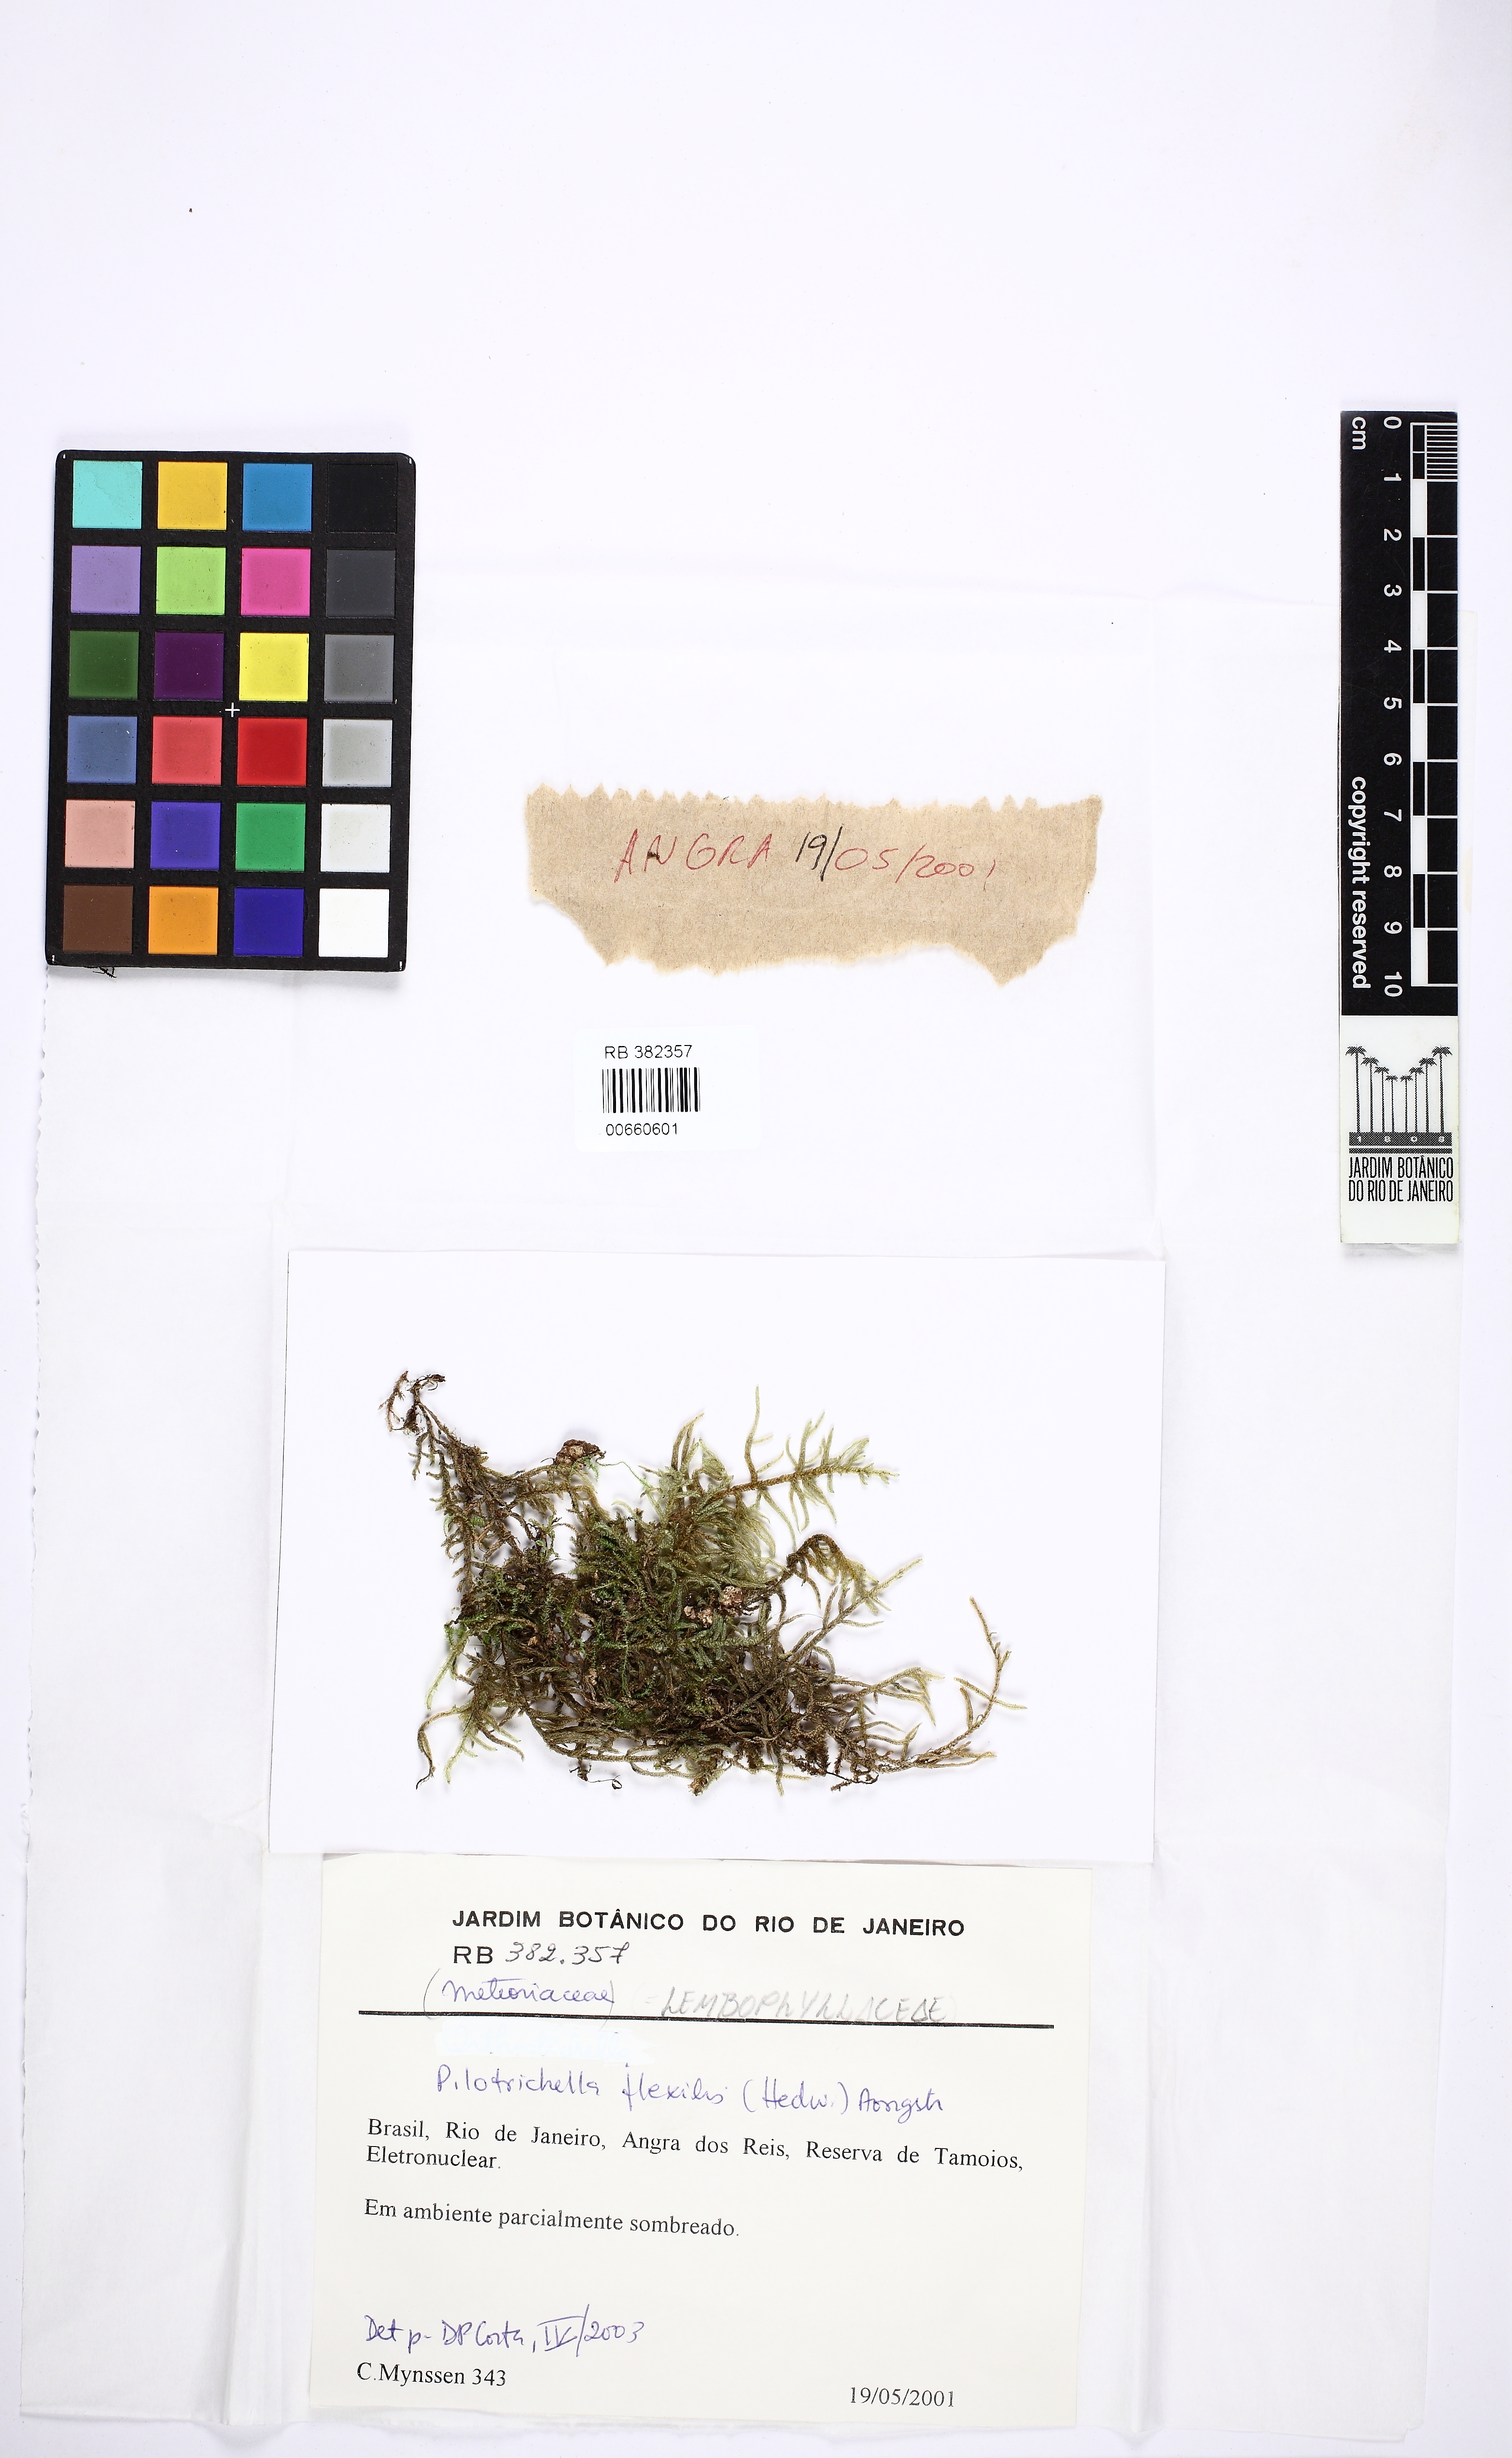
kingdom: Plantae
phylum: Bryophyta
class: Bryopsida
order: Hypnales
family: Lembophyllaceae
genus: Pilotrichella
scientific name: Pilotrichella flexilis
